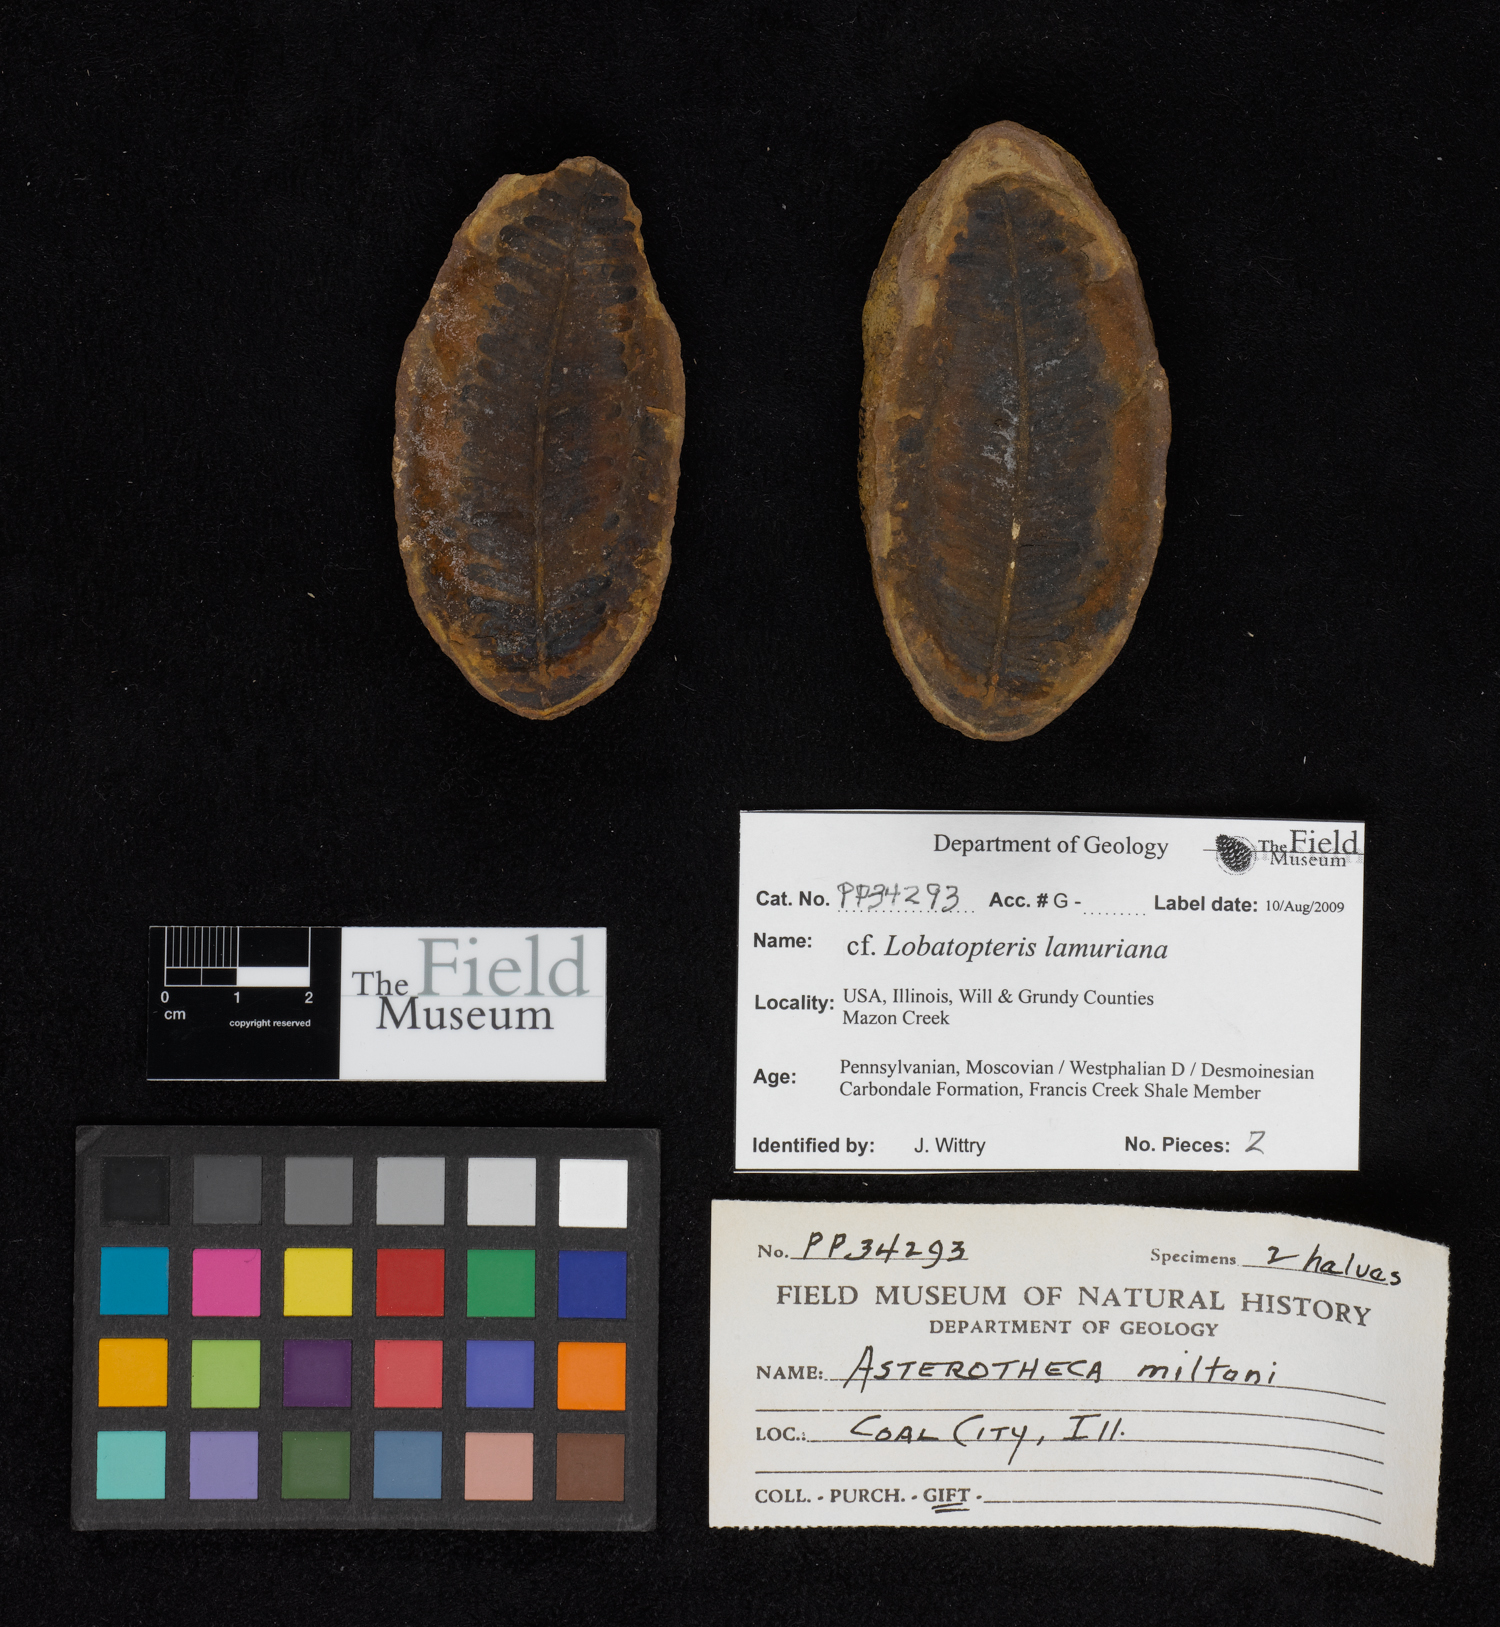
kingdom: Plantae
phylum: Tracheophyta
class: Polypodiopsida
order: Marattiales
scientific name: Marattiales
